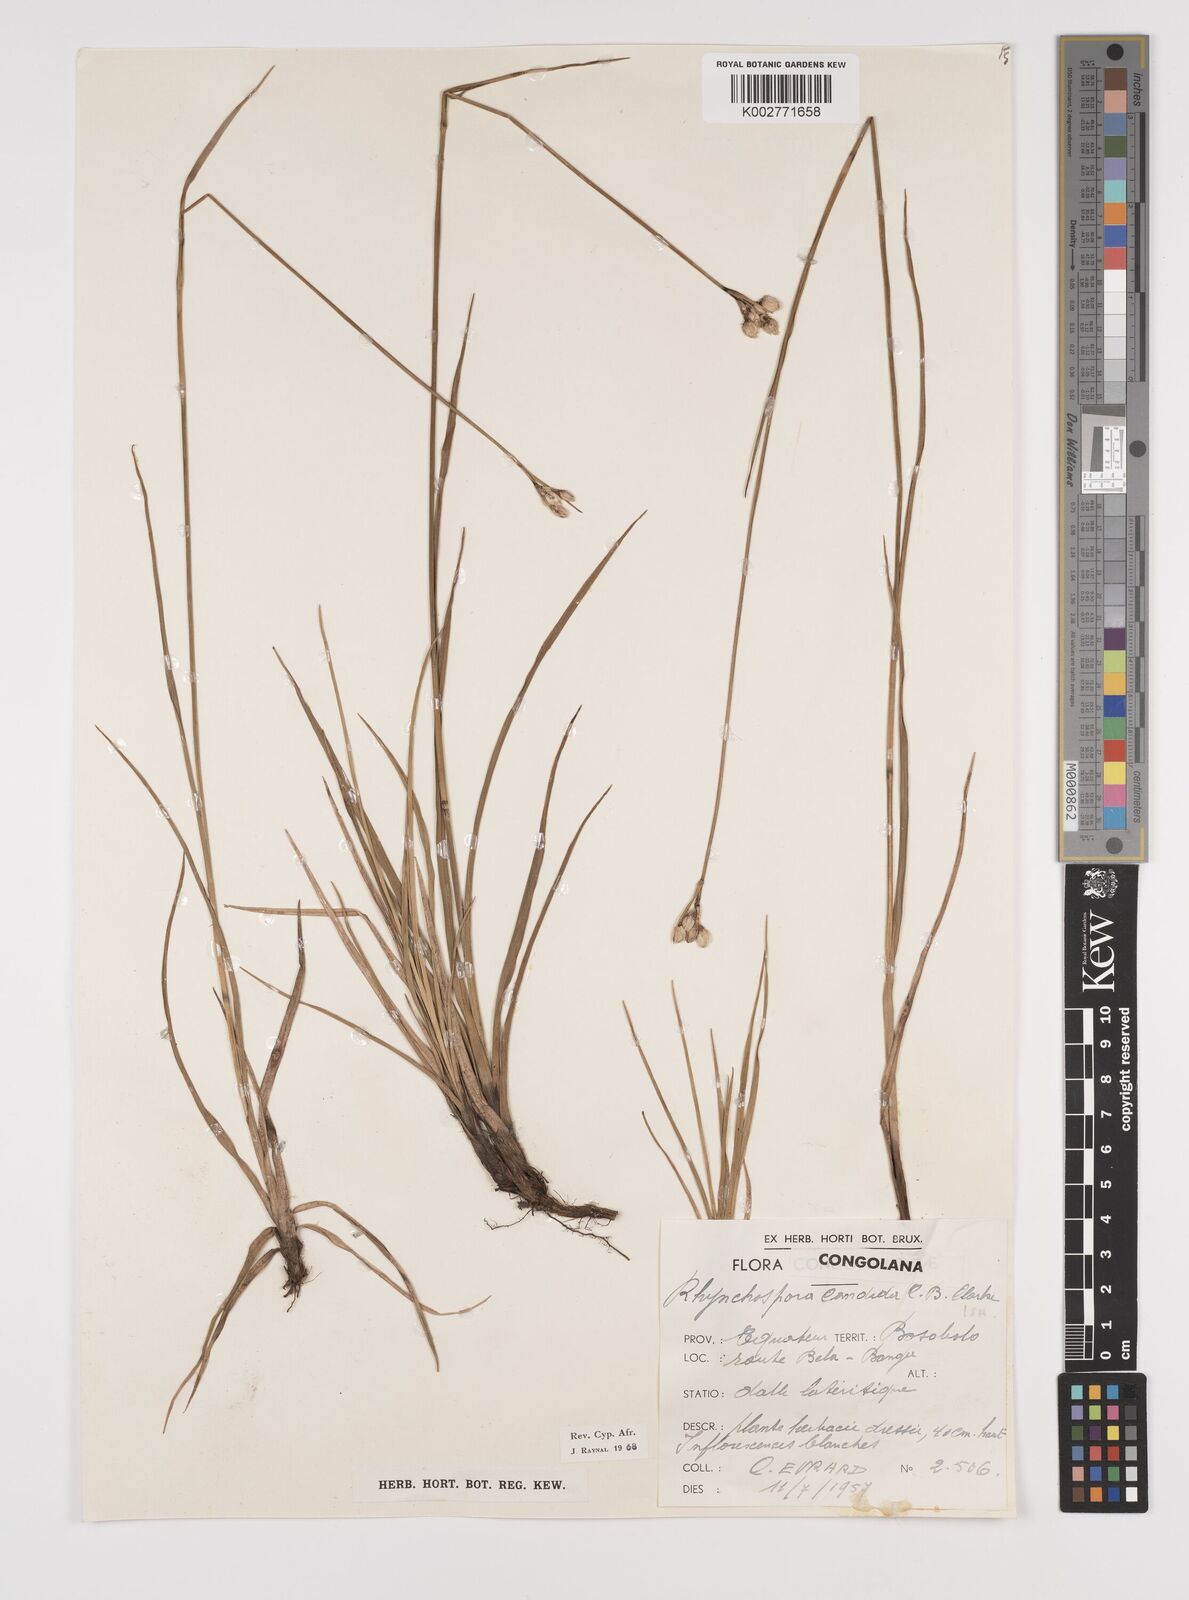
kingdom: Plantae
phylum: Tracheophyta
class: Liliopsida
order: Poales
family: Cyperaceae
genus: Rhynchospora
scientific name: Rhynchospora candida
